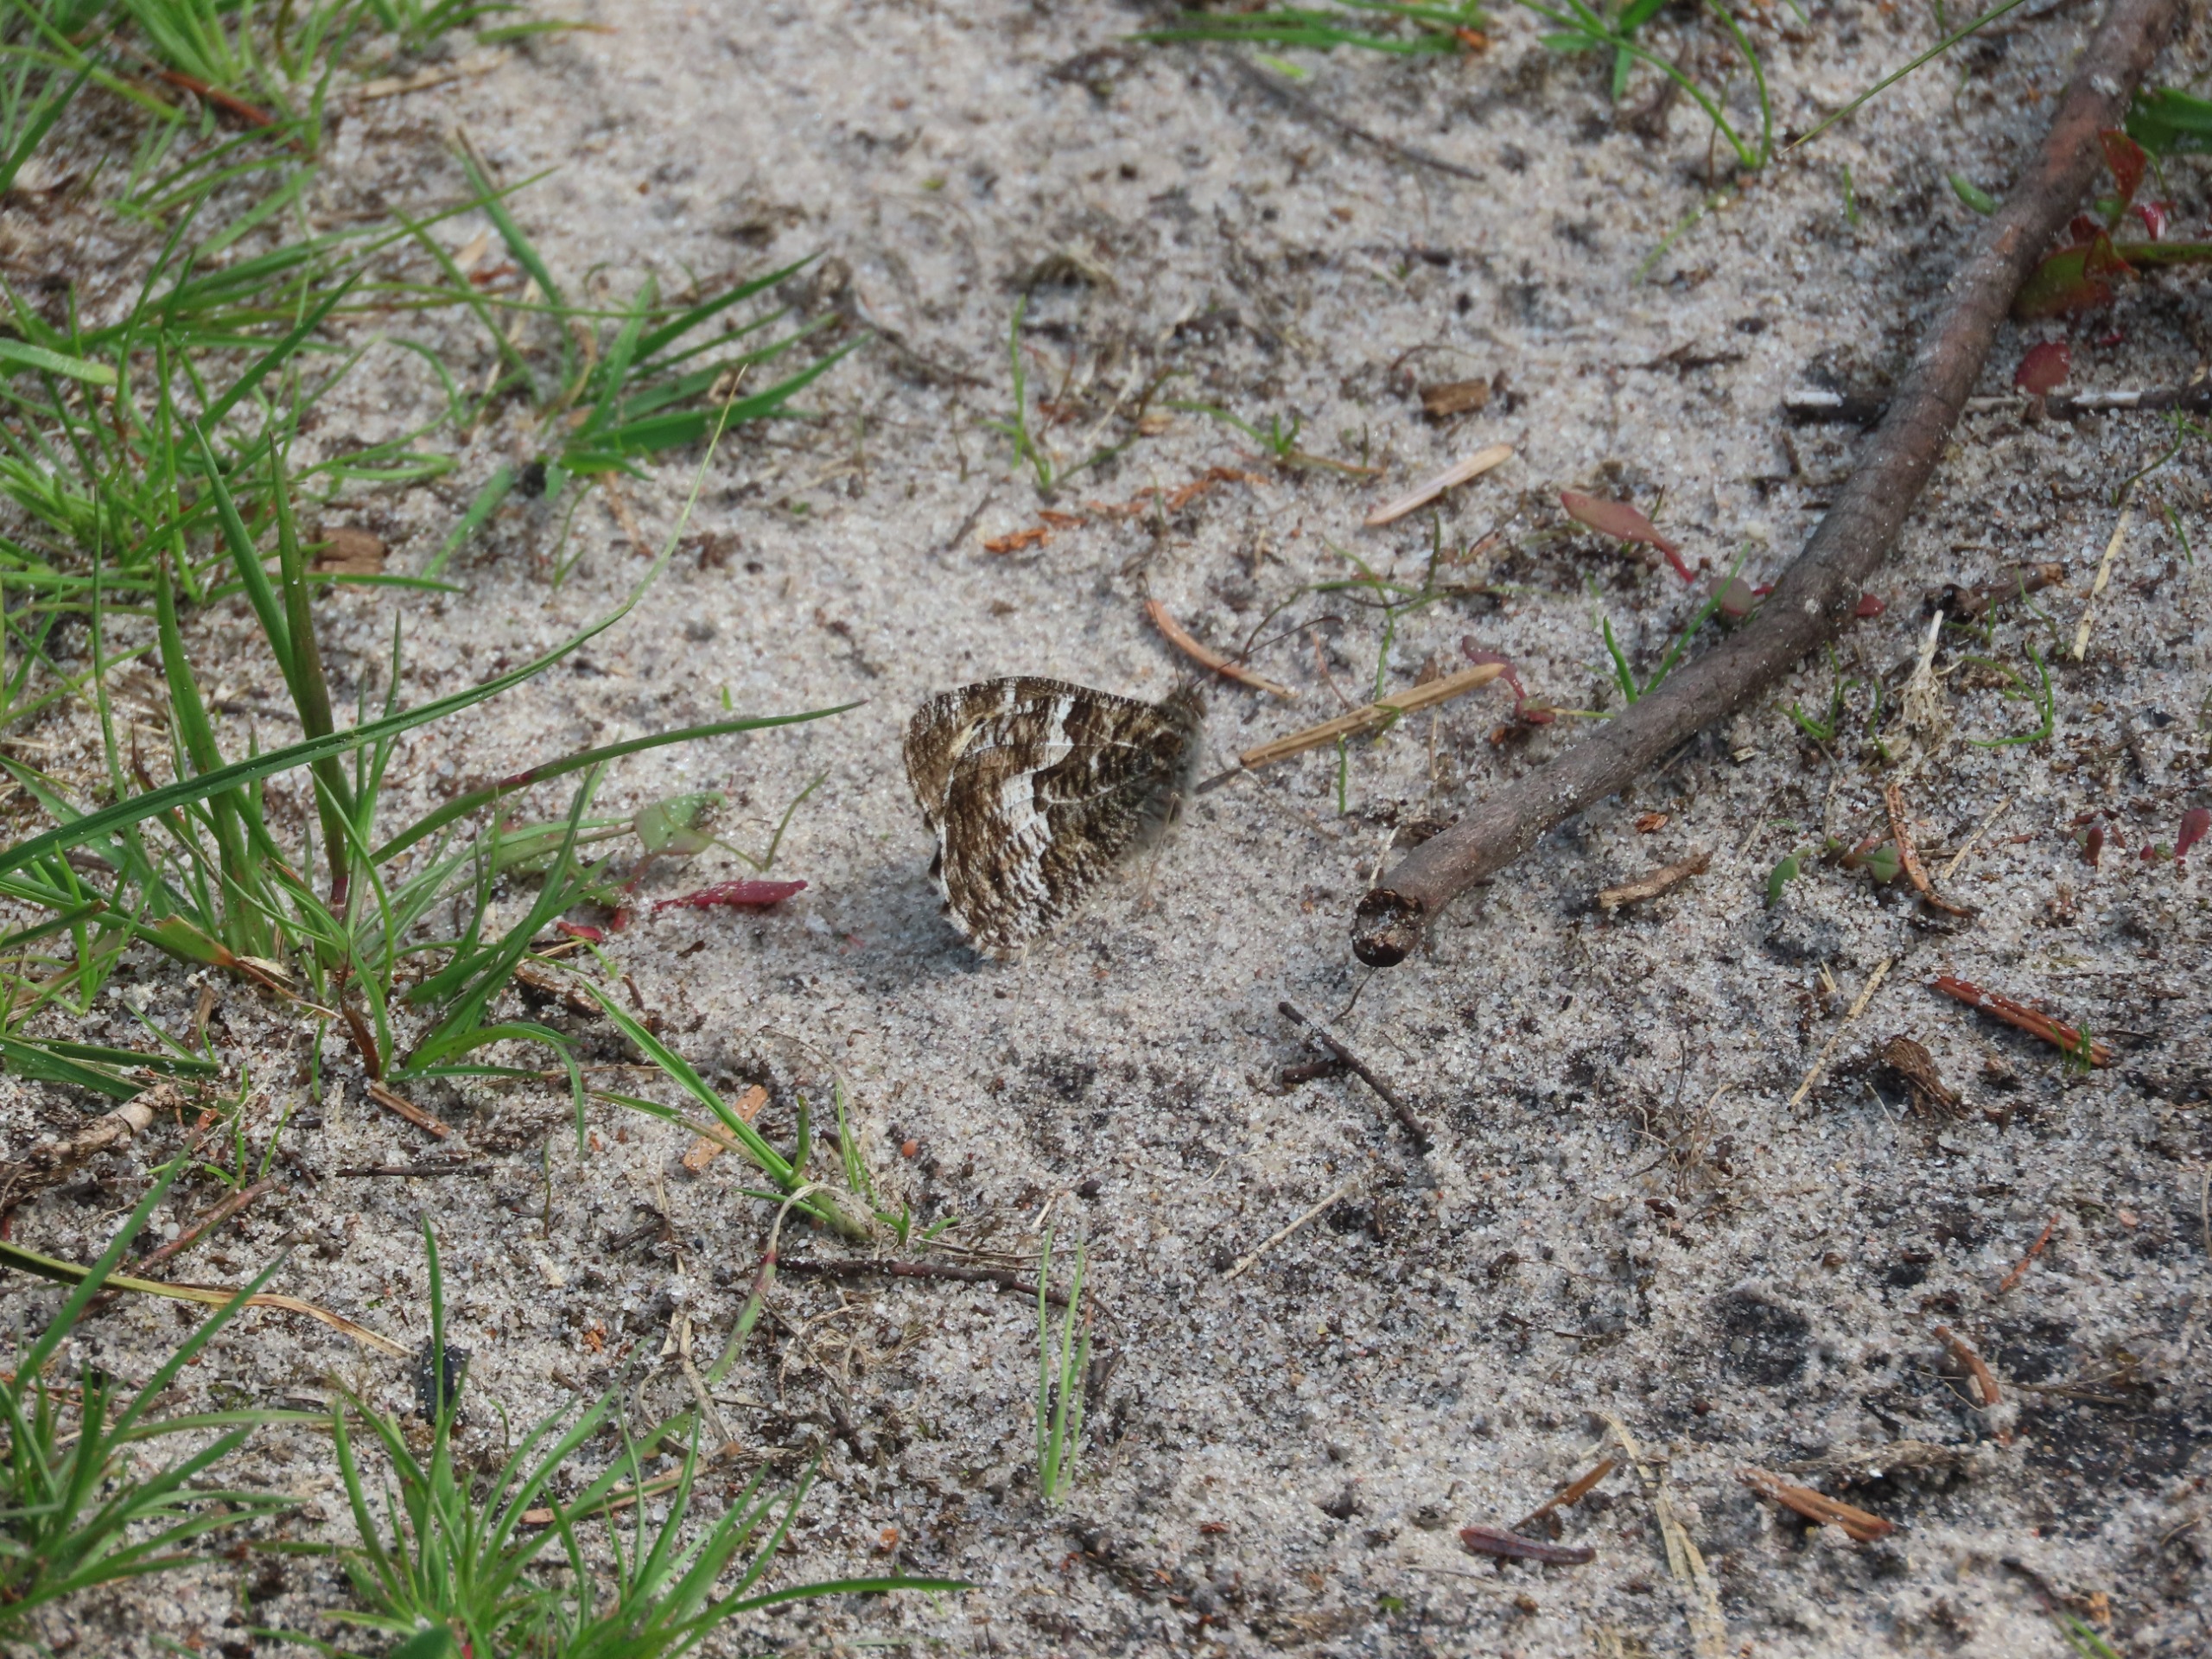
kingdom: Animalia
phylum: Arthropoda
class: Insecta
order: Lepidoptera
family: Nymphalidae
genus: Hipparchia
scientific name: Hipparchia semele
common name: Sandrandøje
